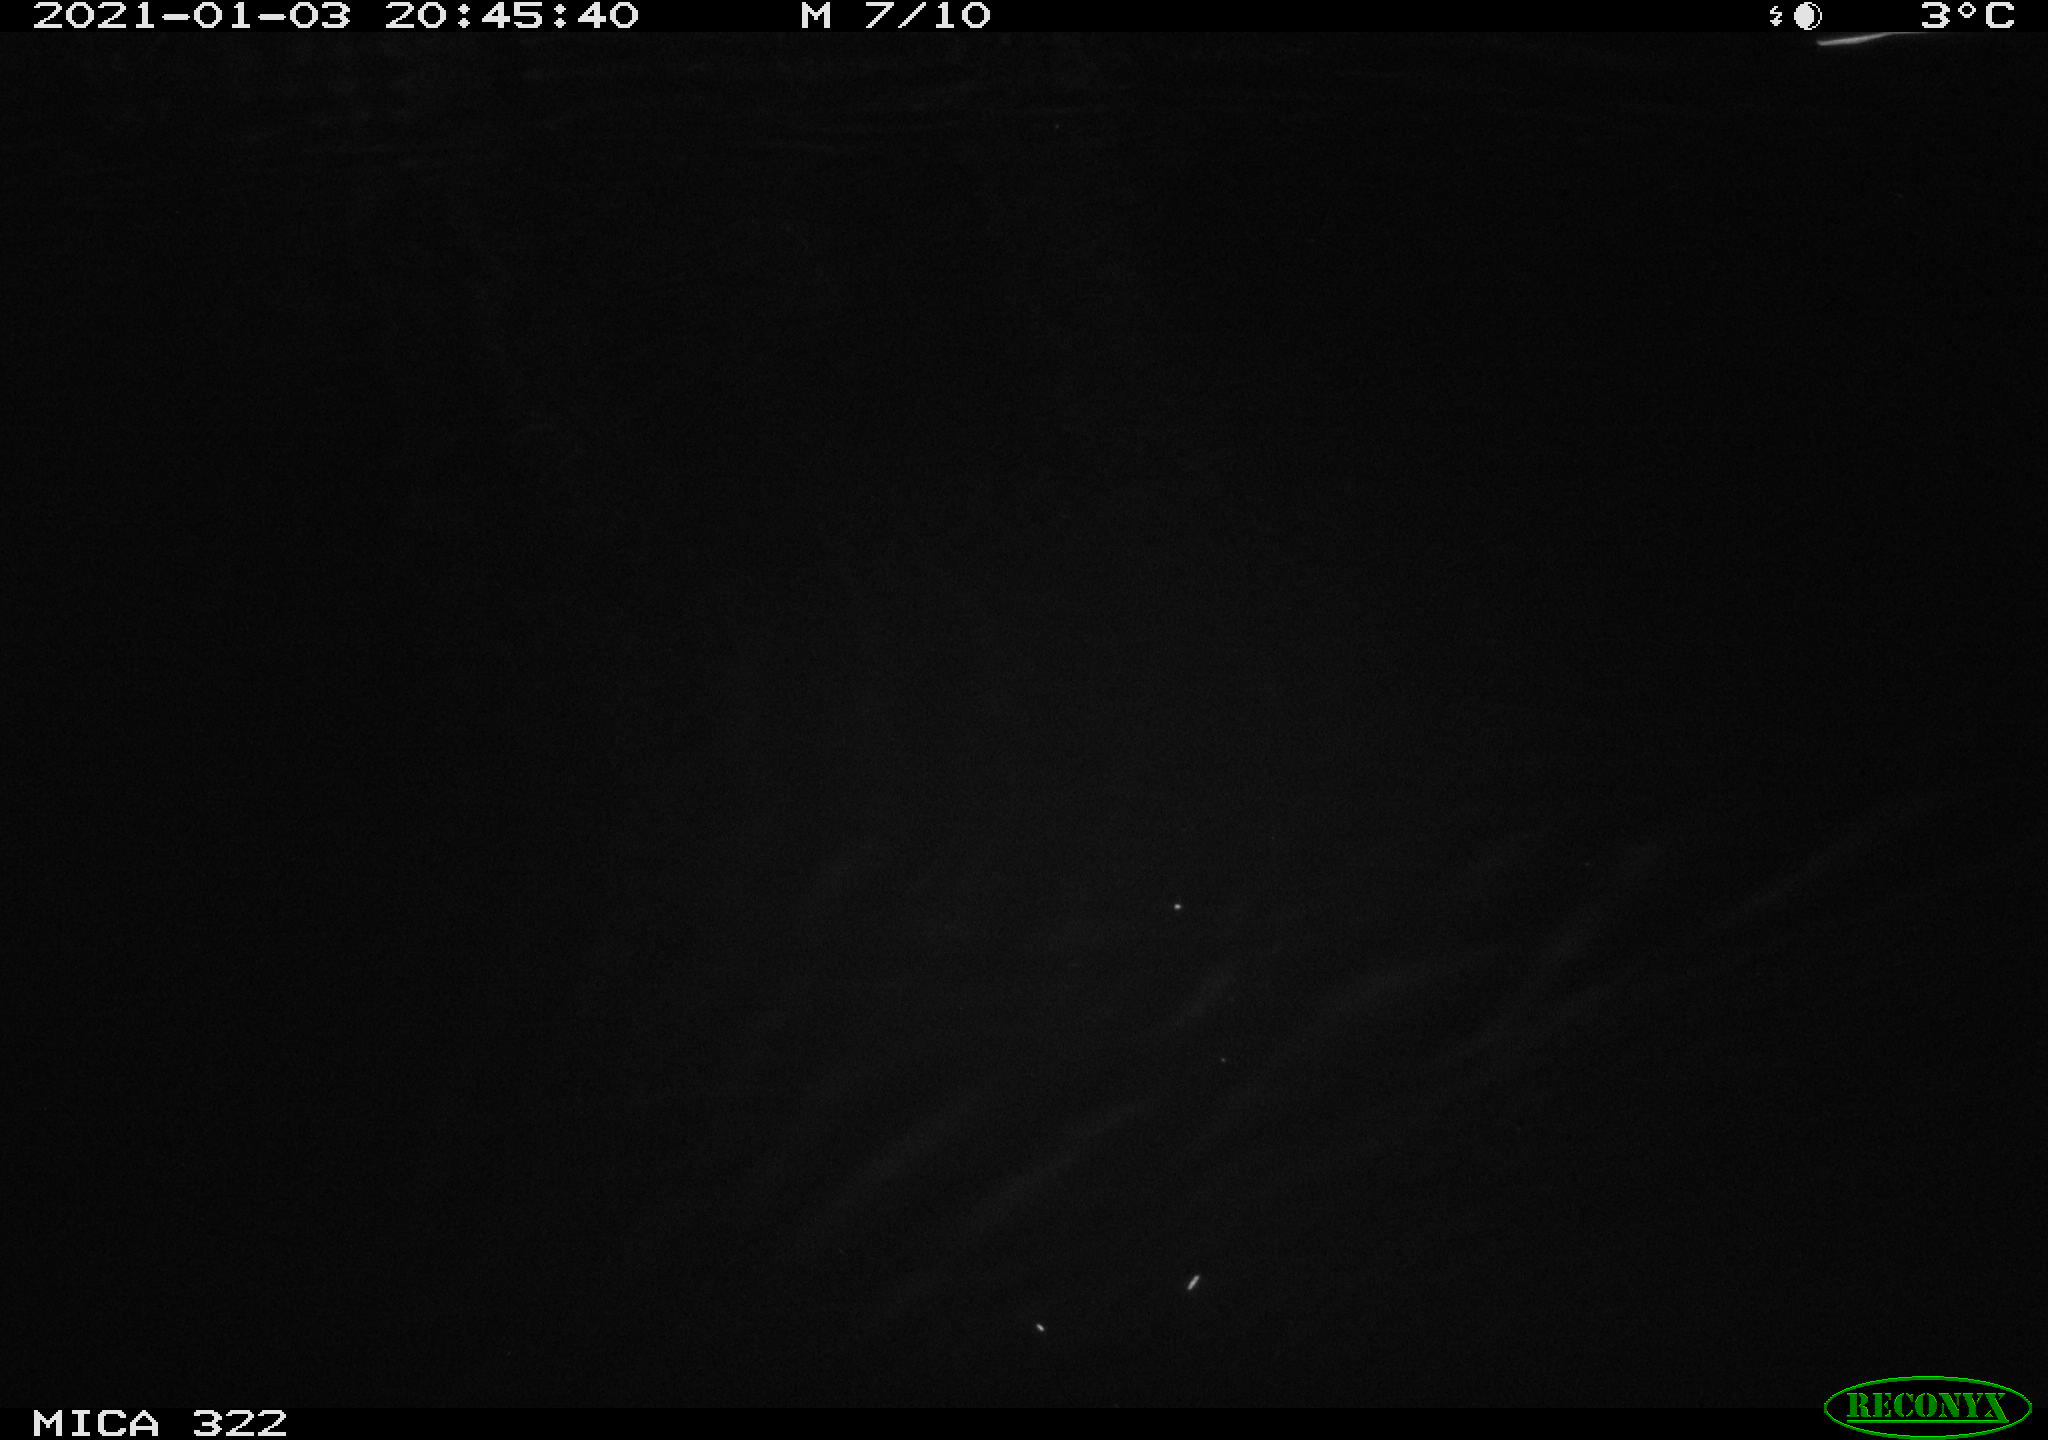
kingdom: Animalia
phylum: Chordata
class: Aves
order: Anseriformes
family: Anatidae
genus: Anas
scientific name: Anas platyrhynchos
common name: Mallard
